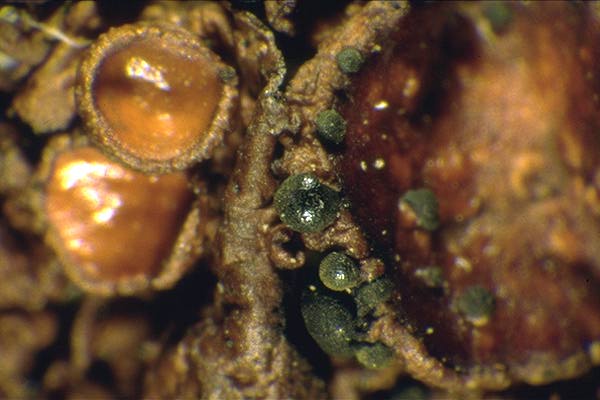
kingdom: Fungi
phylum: Ascomycota
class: Lecanoromycetes
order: Lecanorales
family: Parmeliaceae
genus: Melanohalea
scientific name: Melanohalea septentrionalis
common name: Northern camouflage lichen
